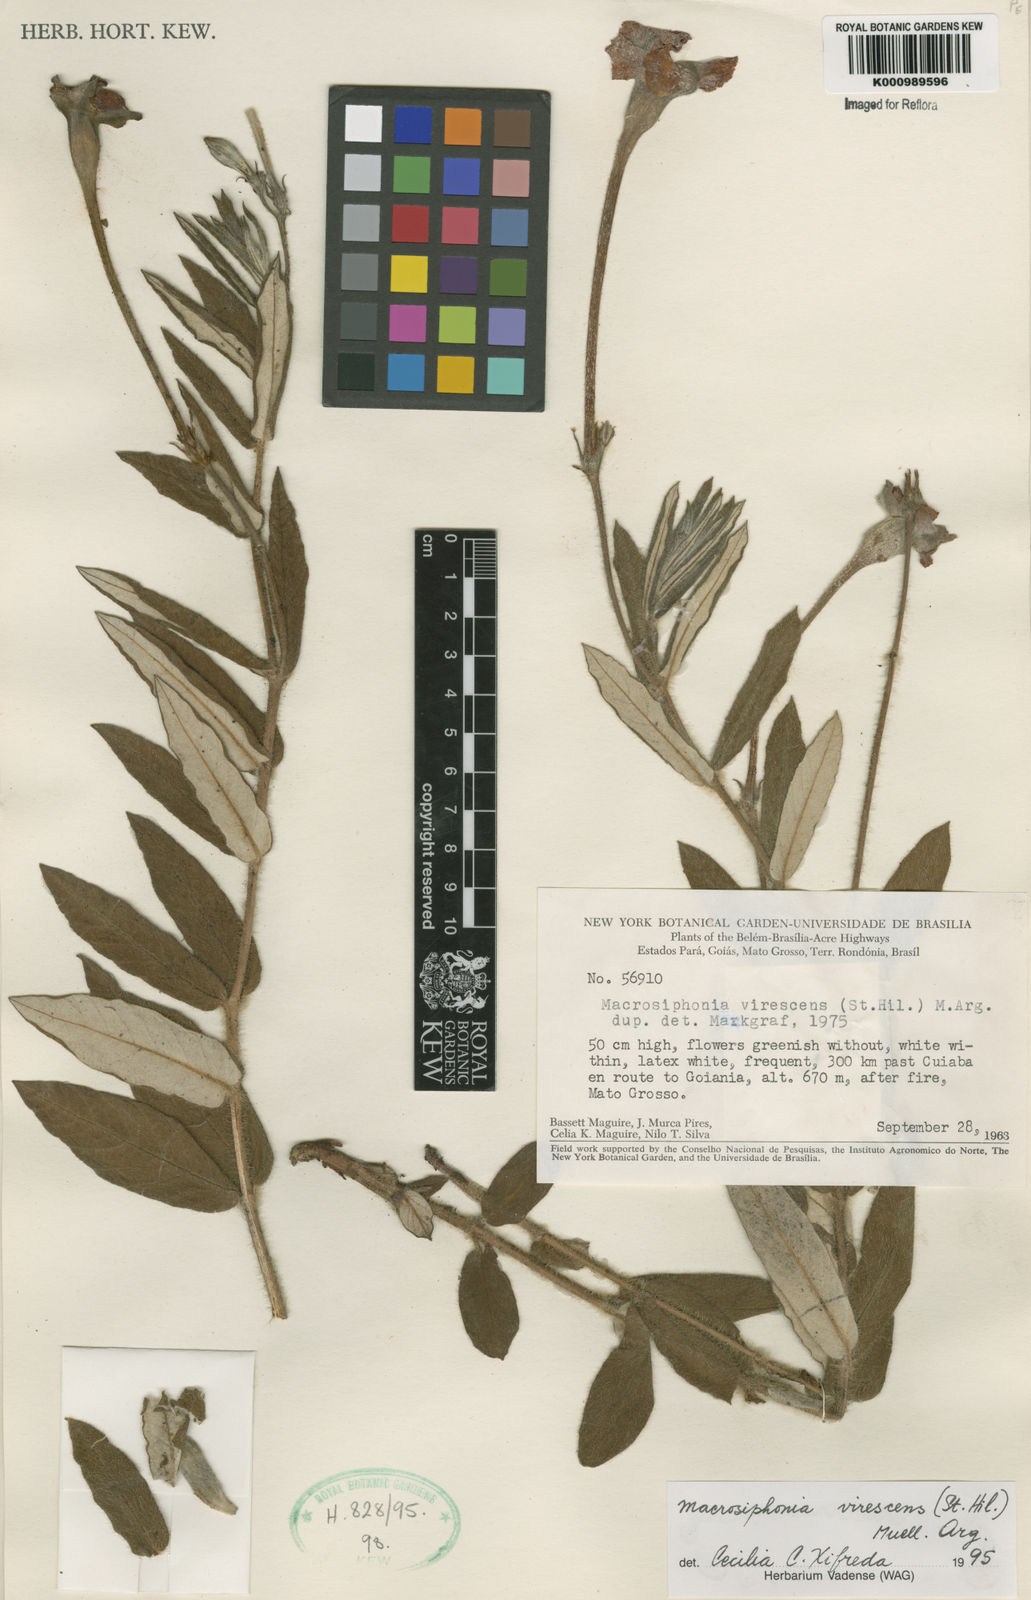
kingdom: Plantae
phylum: Tracheophyta
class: Magnoliopsida
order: Gentianales
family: Apocynaceae
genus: Mandevilla
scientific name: Mandevilla virescens
